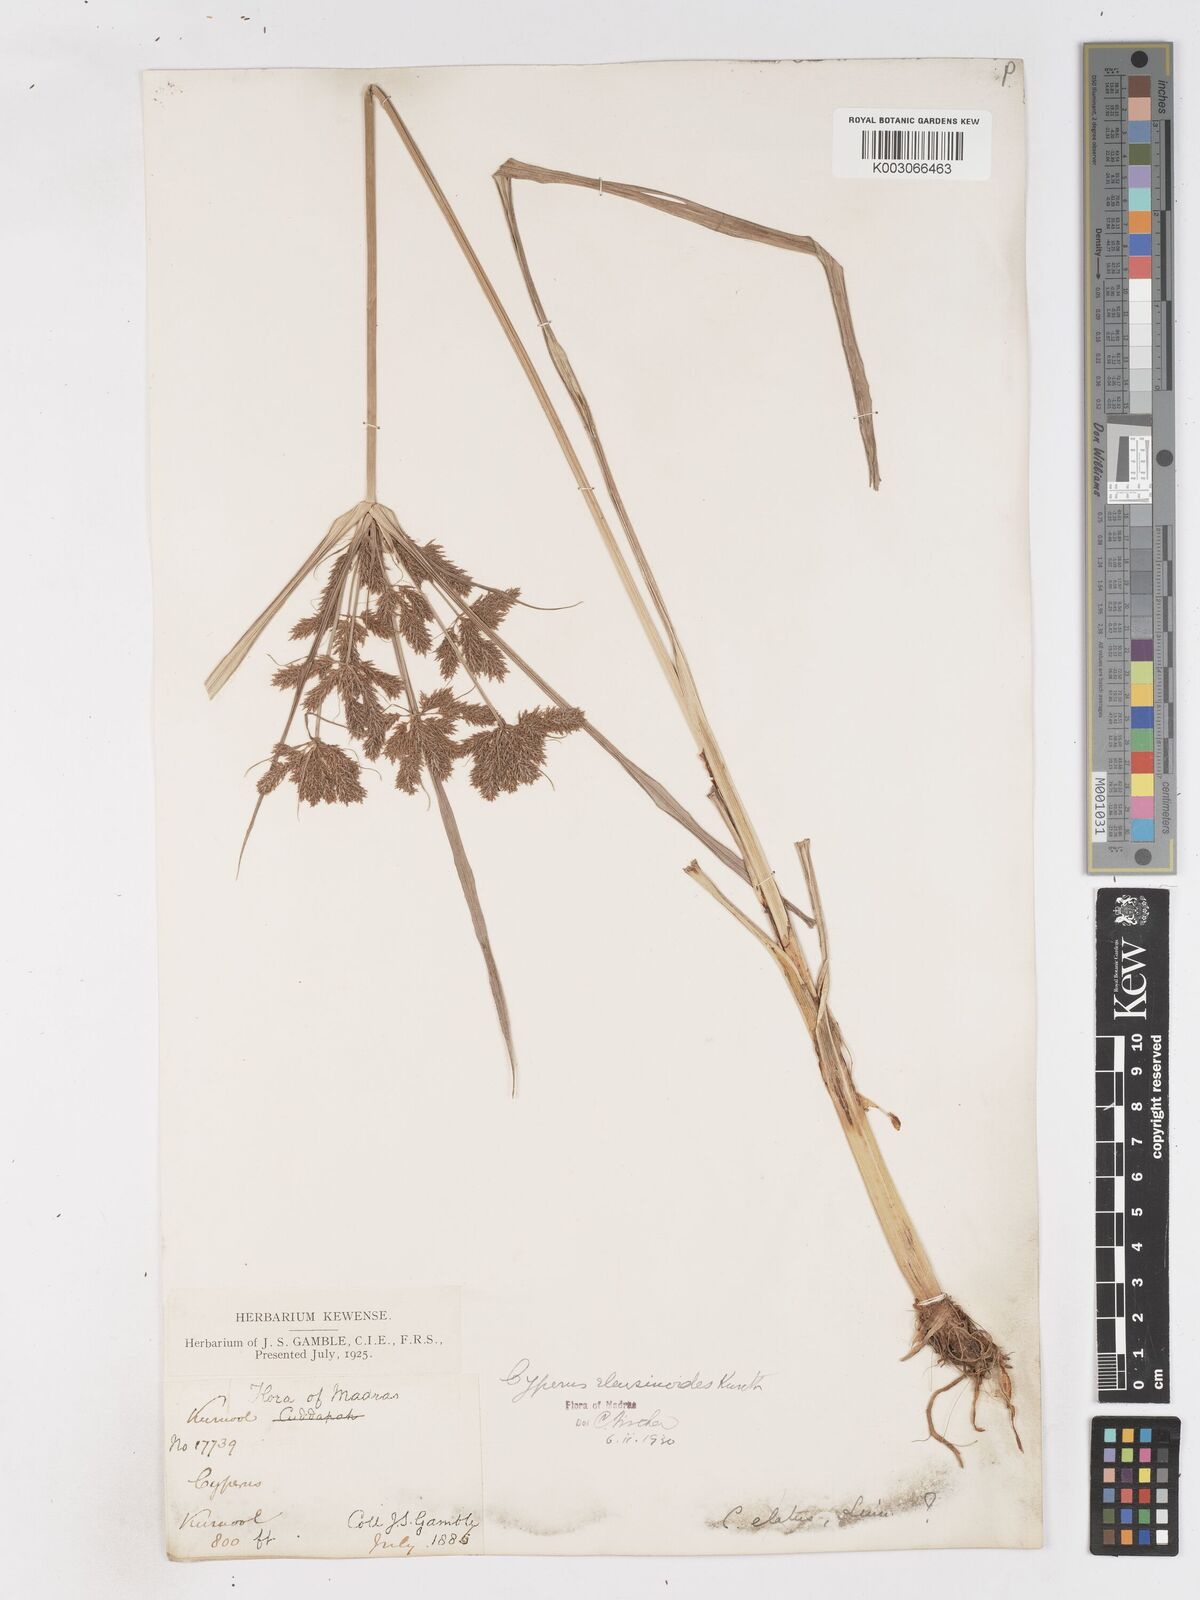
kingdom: Plantae
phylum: Tracheophyta
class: Liliopsida
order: Poales
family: Cyperaceae
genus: Cyperus
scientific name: Cyperus nutans
